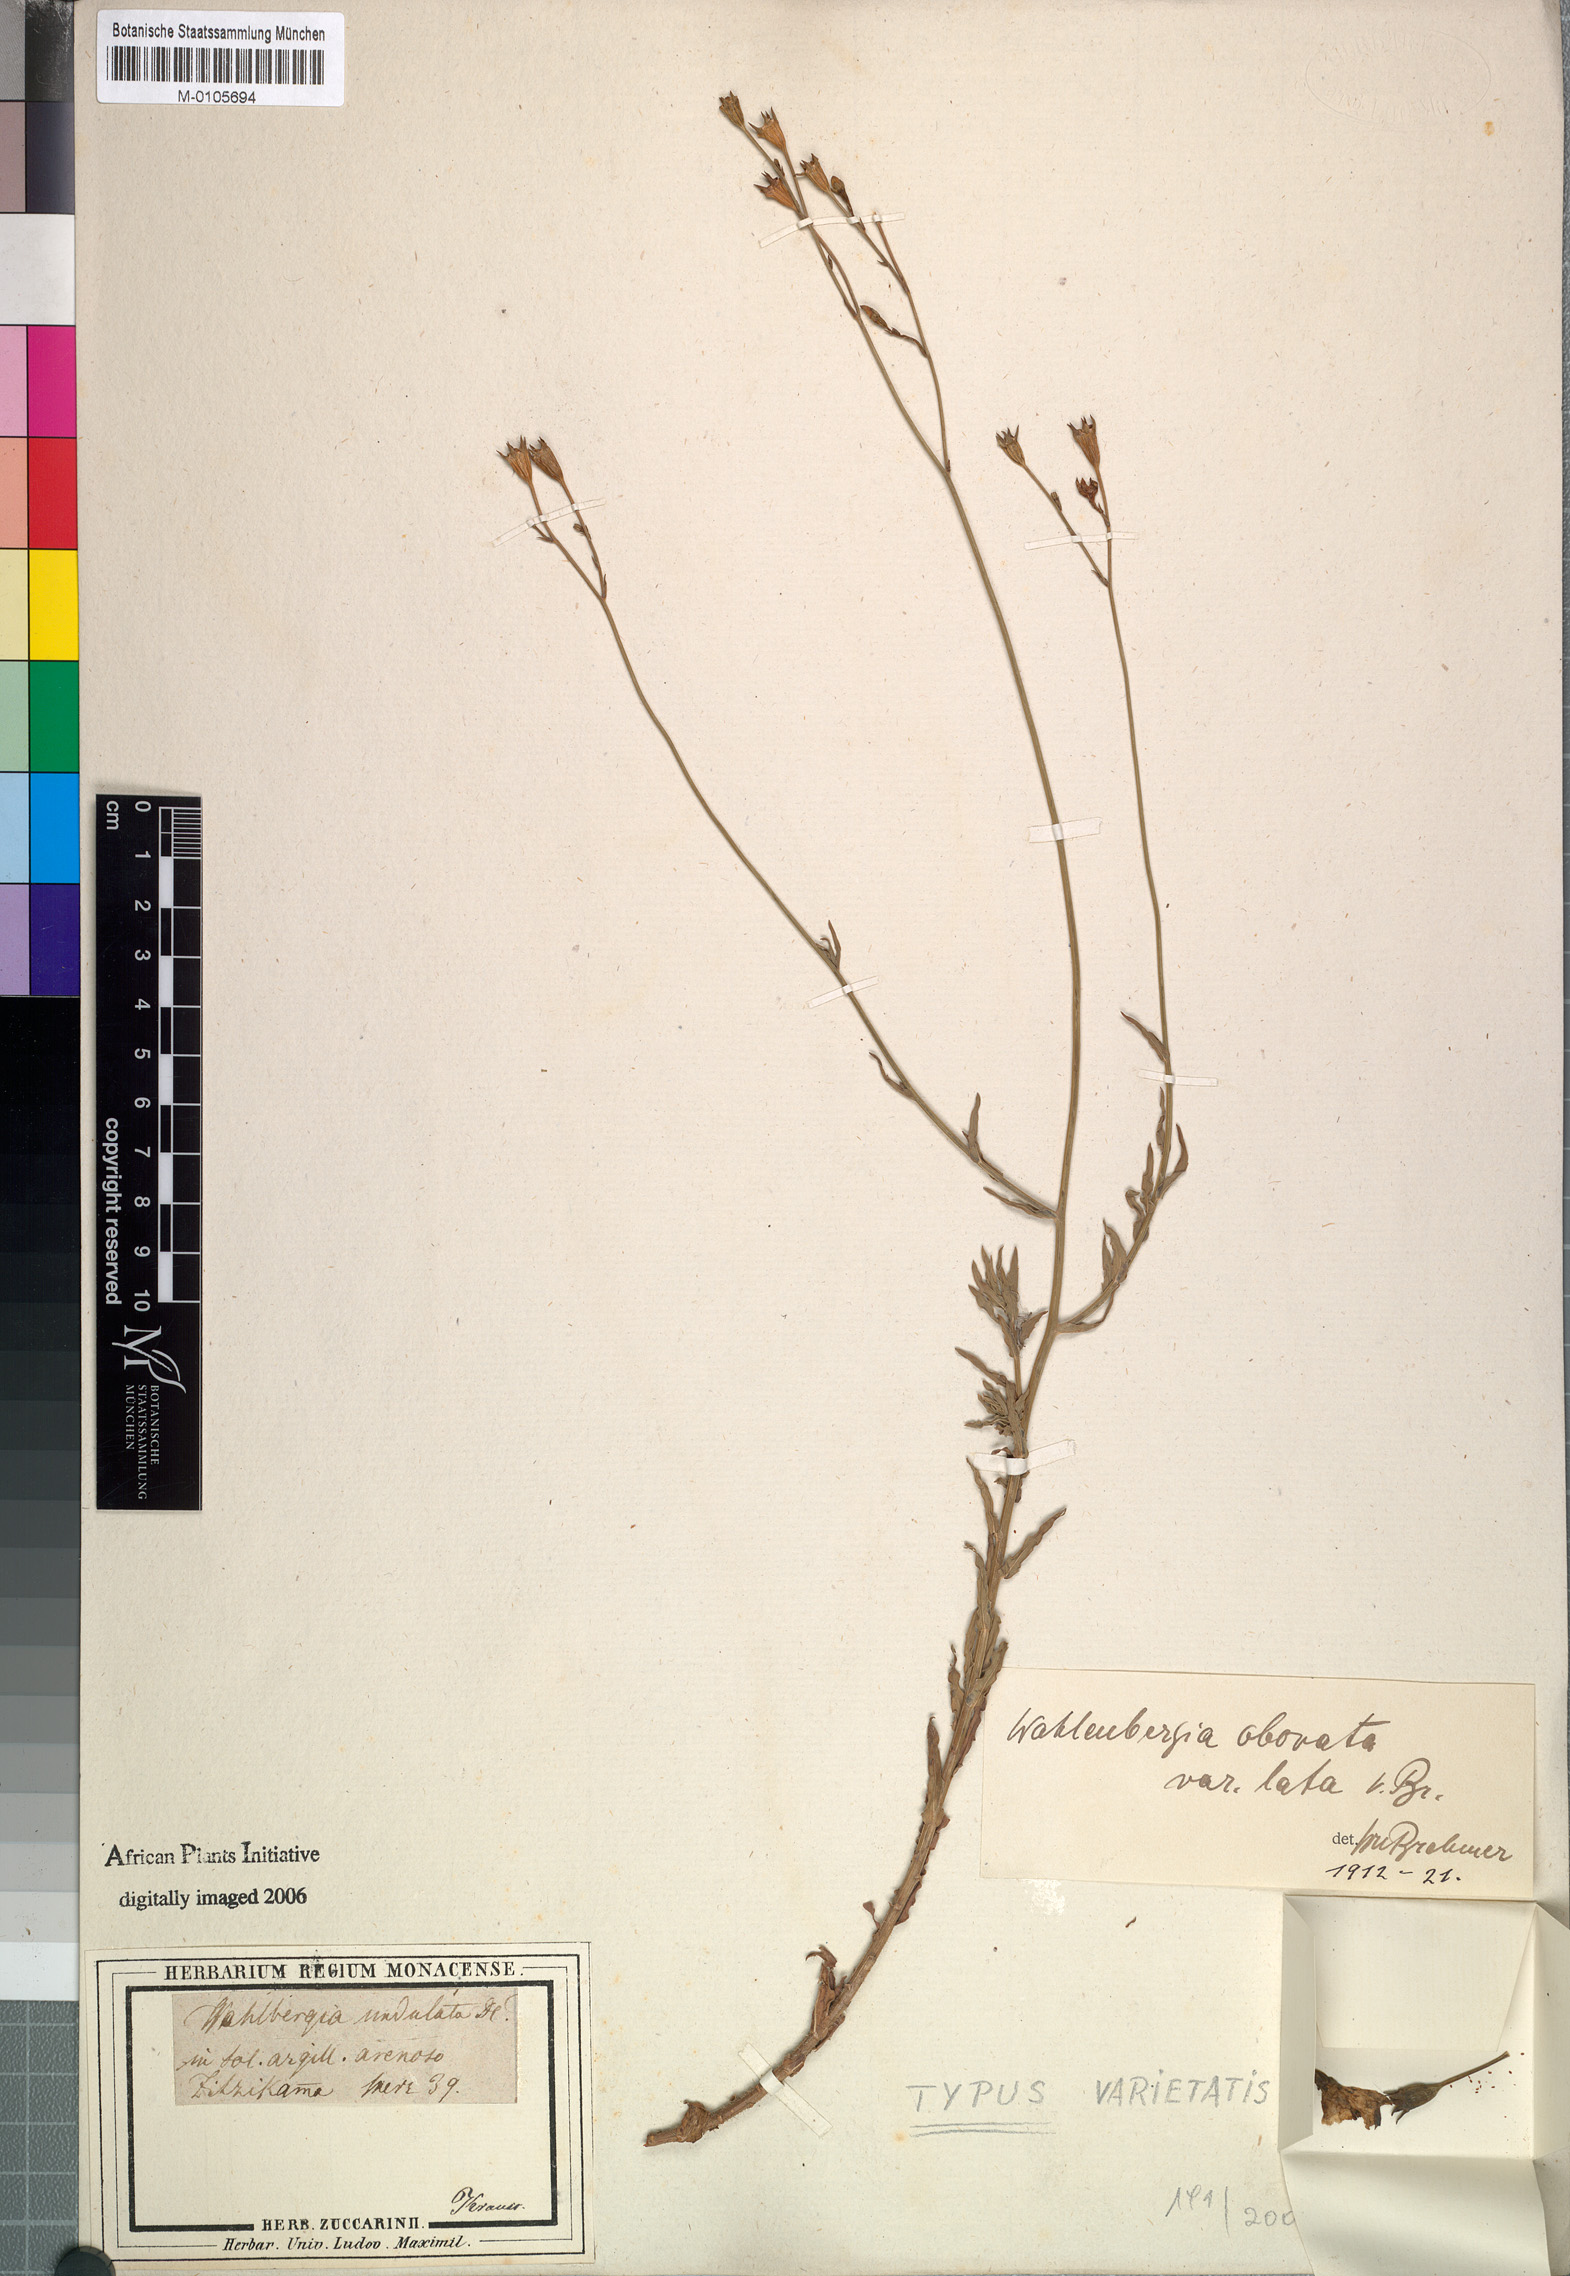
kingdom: Plantae
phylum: Tracheophyta
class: Magnoliopsida
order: Asterales
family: Campanulaceae
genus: Wahlenbergia
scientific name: Wahlenbergia undulata
